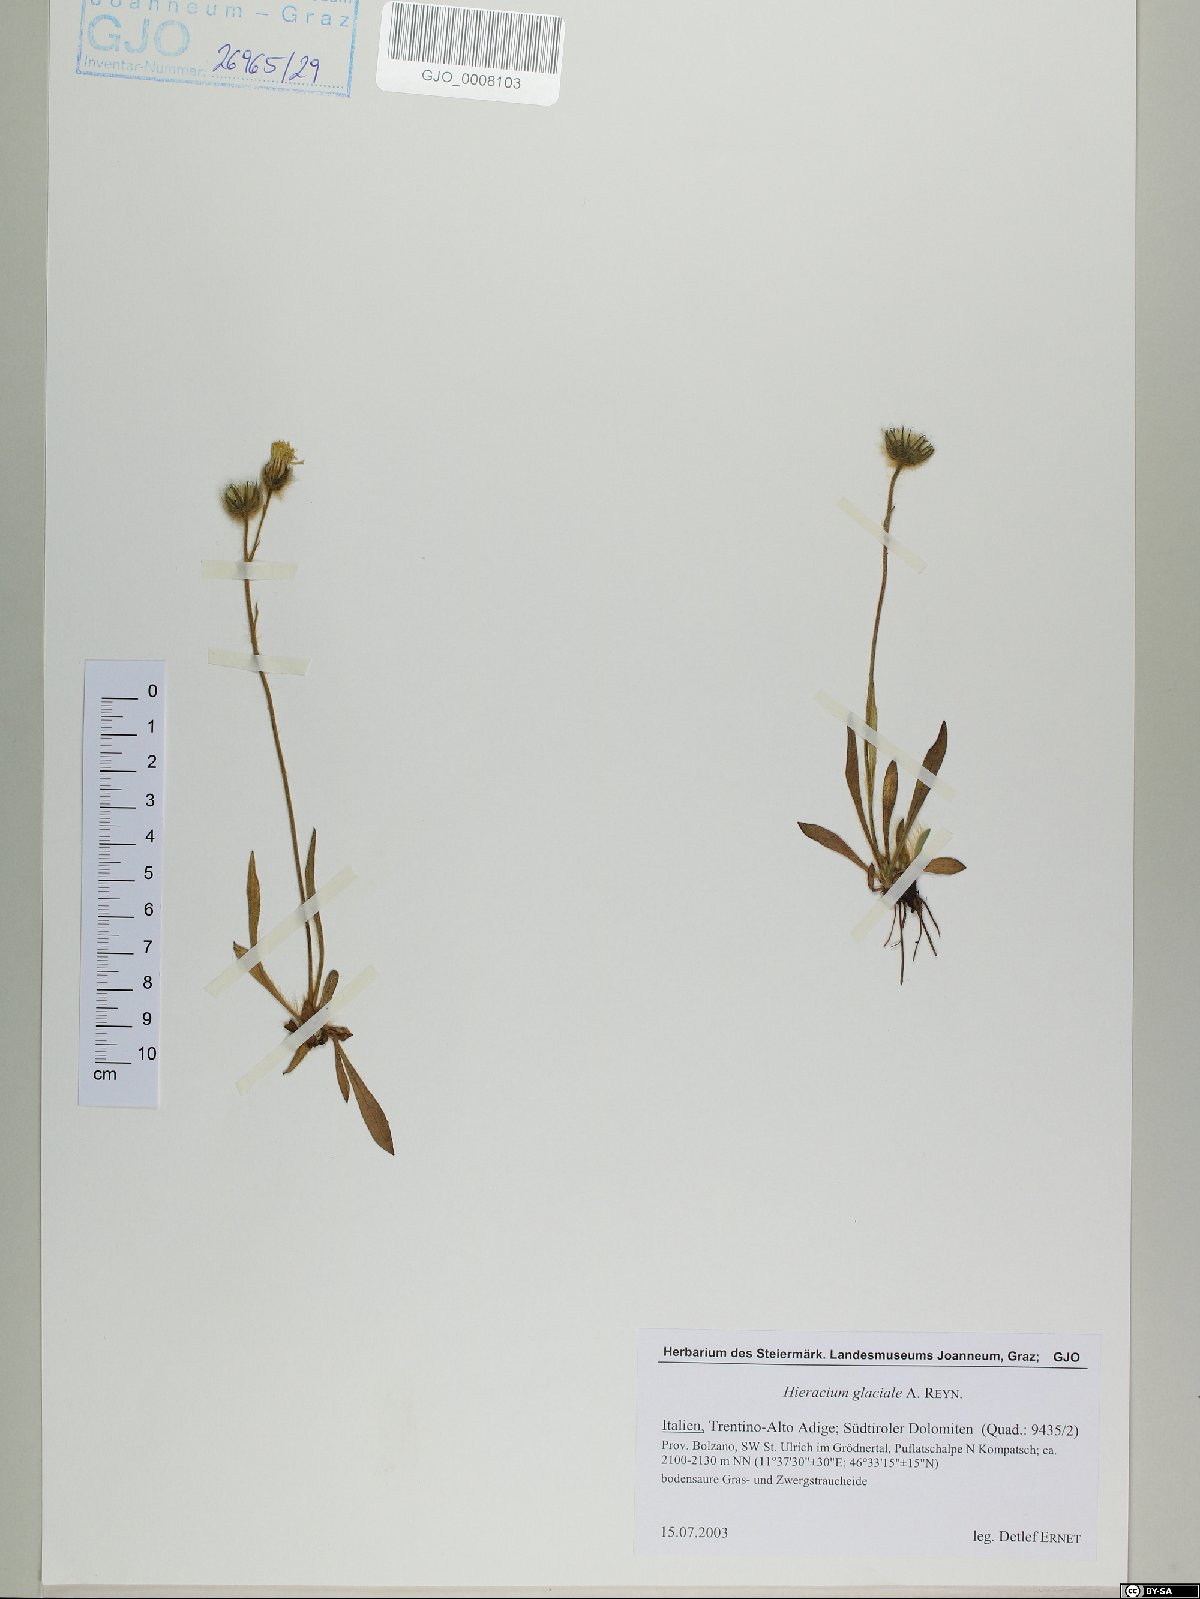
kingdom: Plantae
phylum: Tracheophyta
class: Magnoliopsida
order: Asterales
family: Asteraceae
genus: Pilosella
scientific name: Pilosella glacialis
